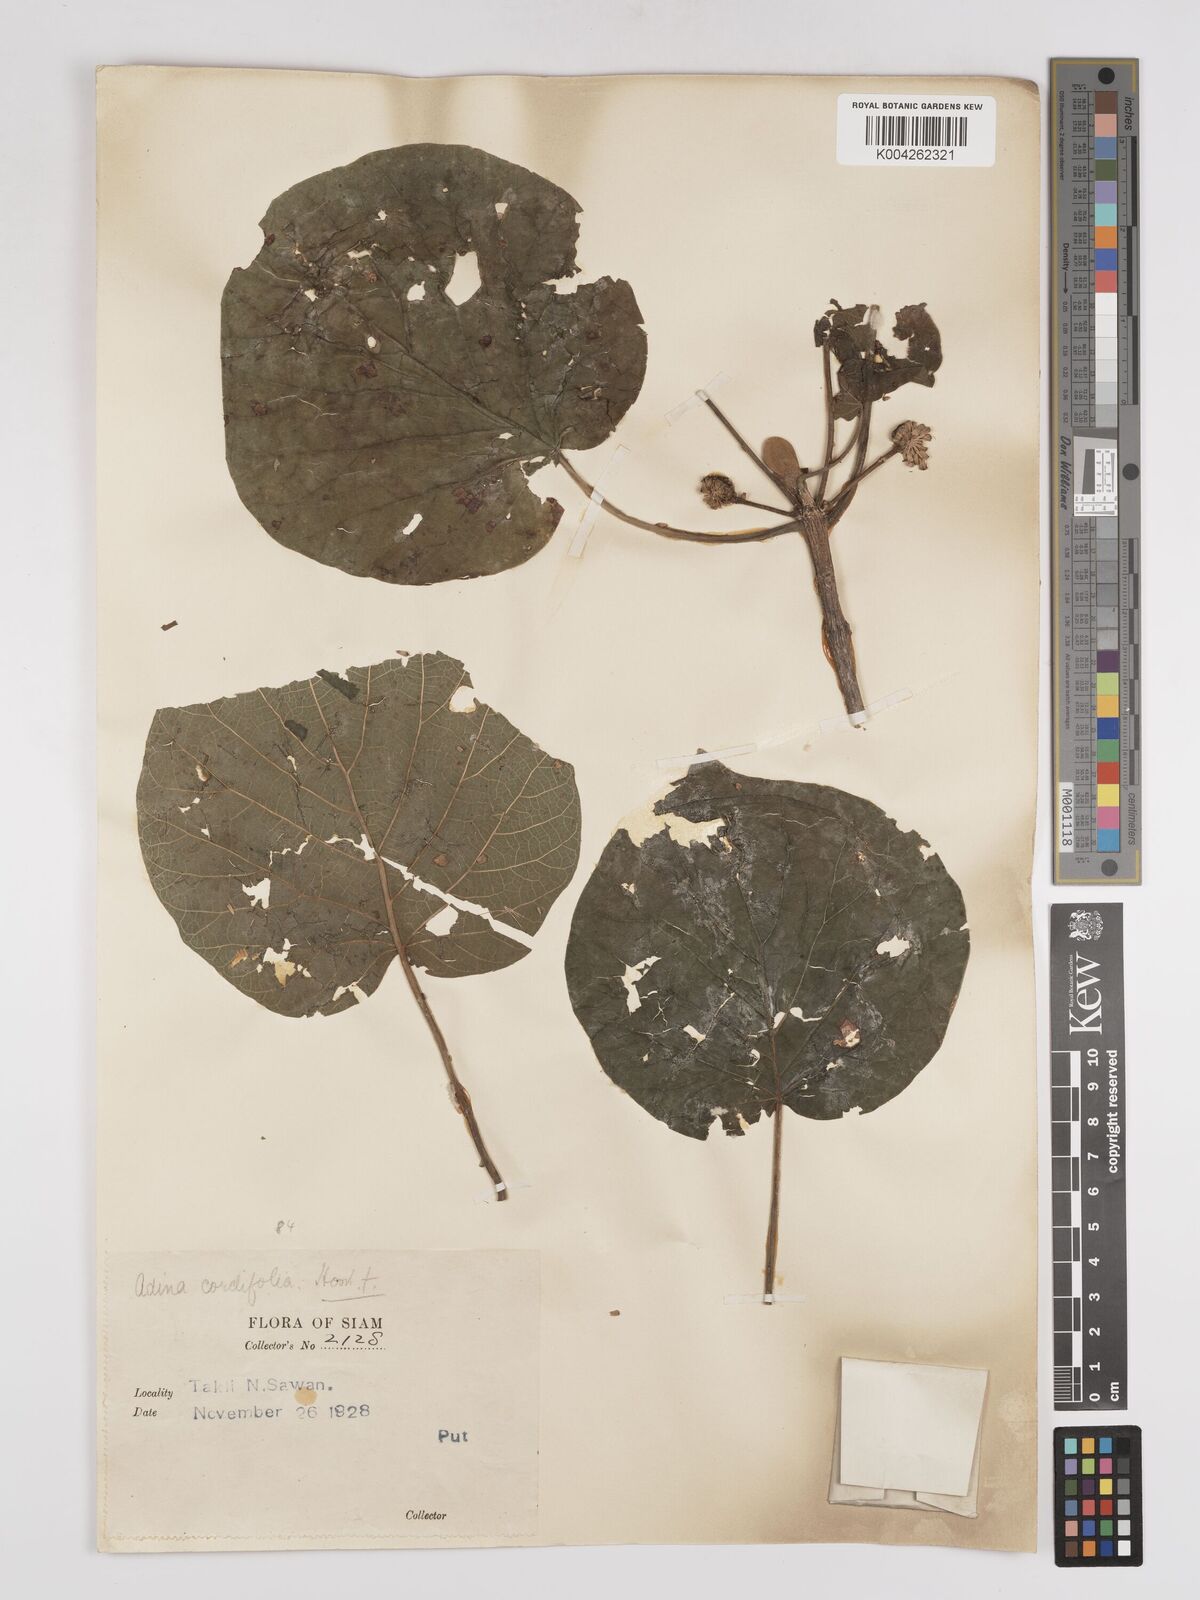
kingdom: Plantae
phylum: Tracheophyta
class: Magnoliopsida
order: Gentianales
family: Rubiaceae
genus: Adina
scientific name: Adina cordifolia
